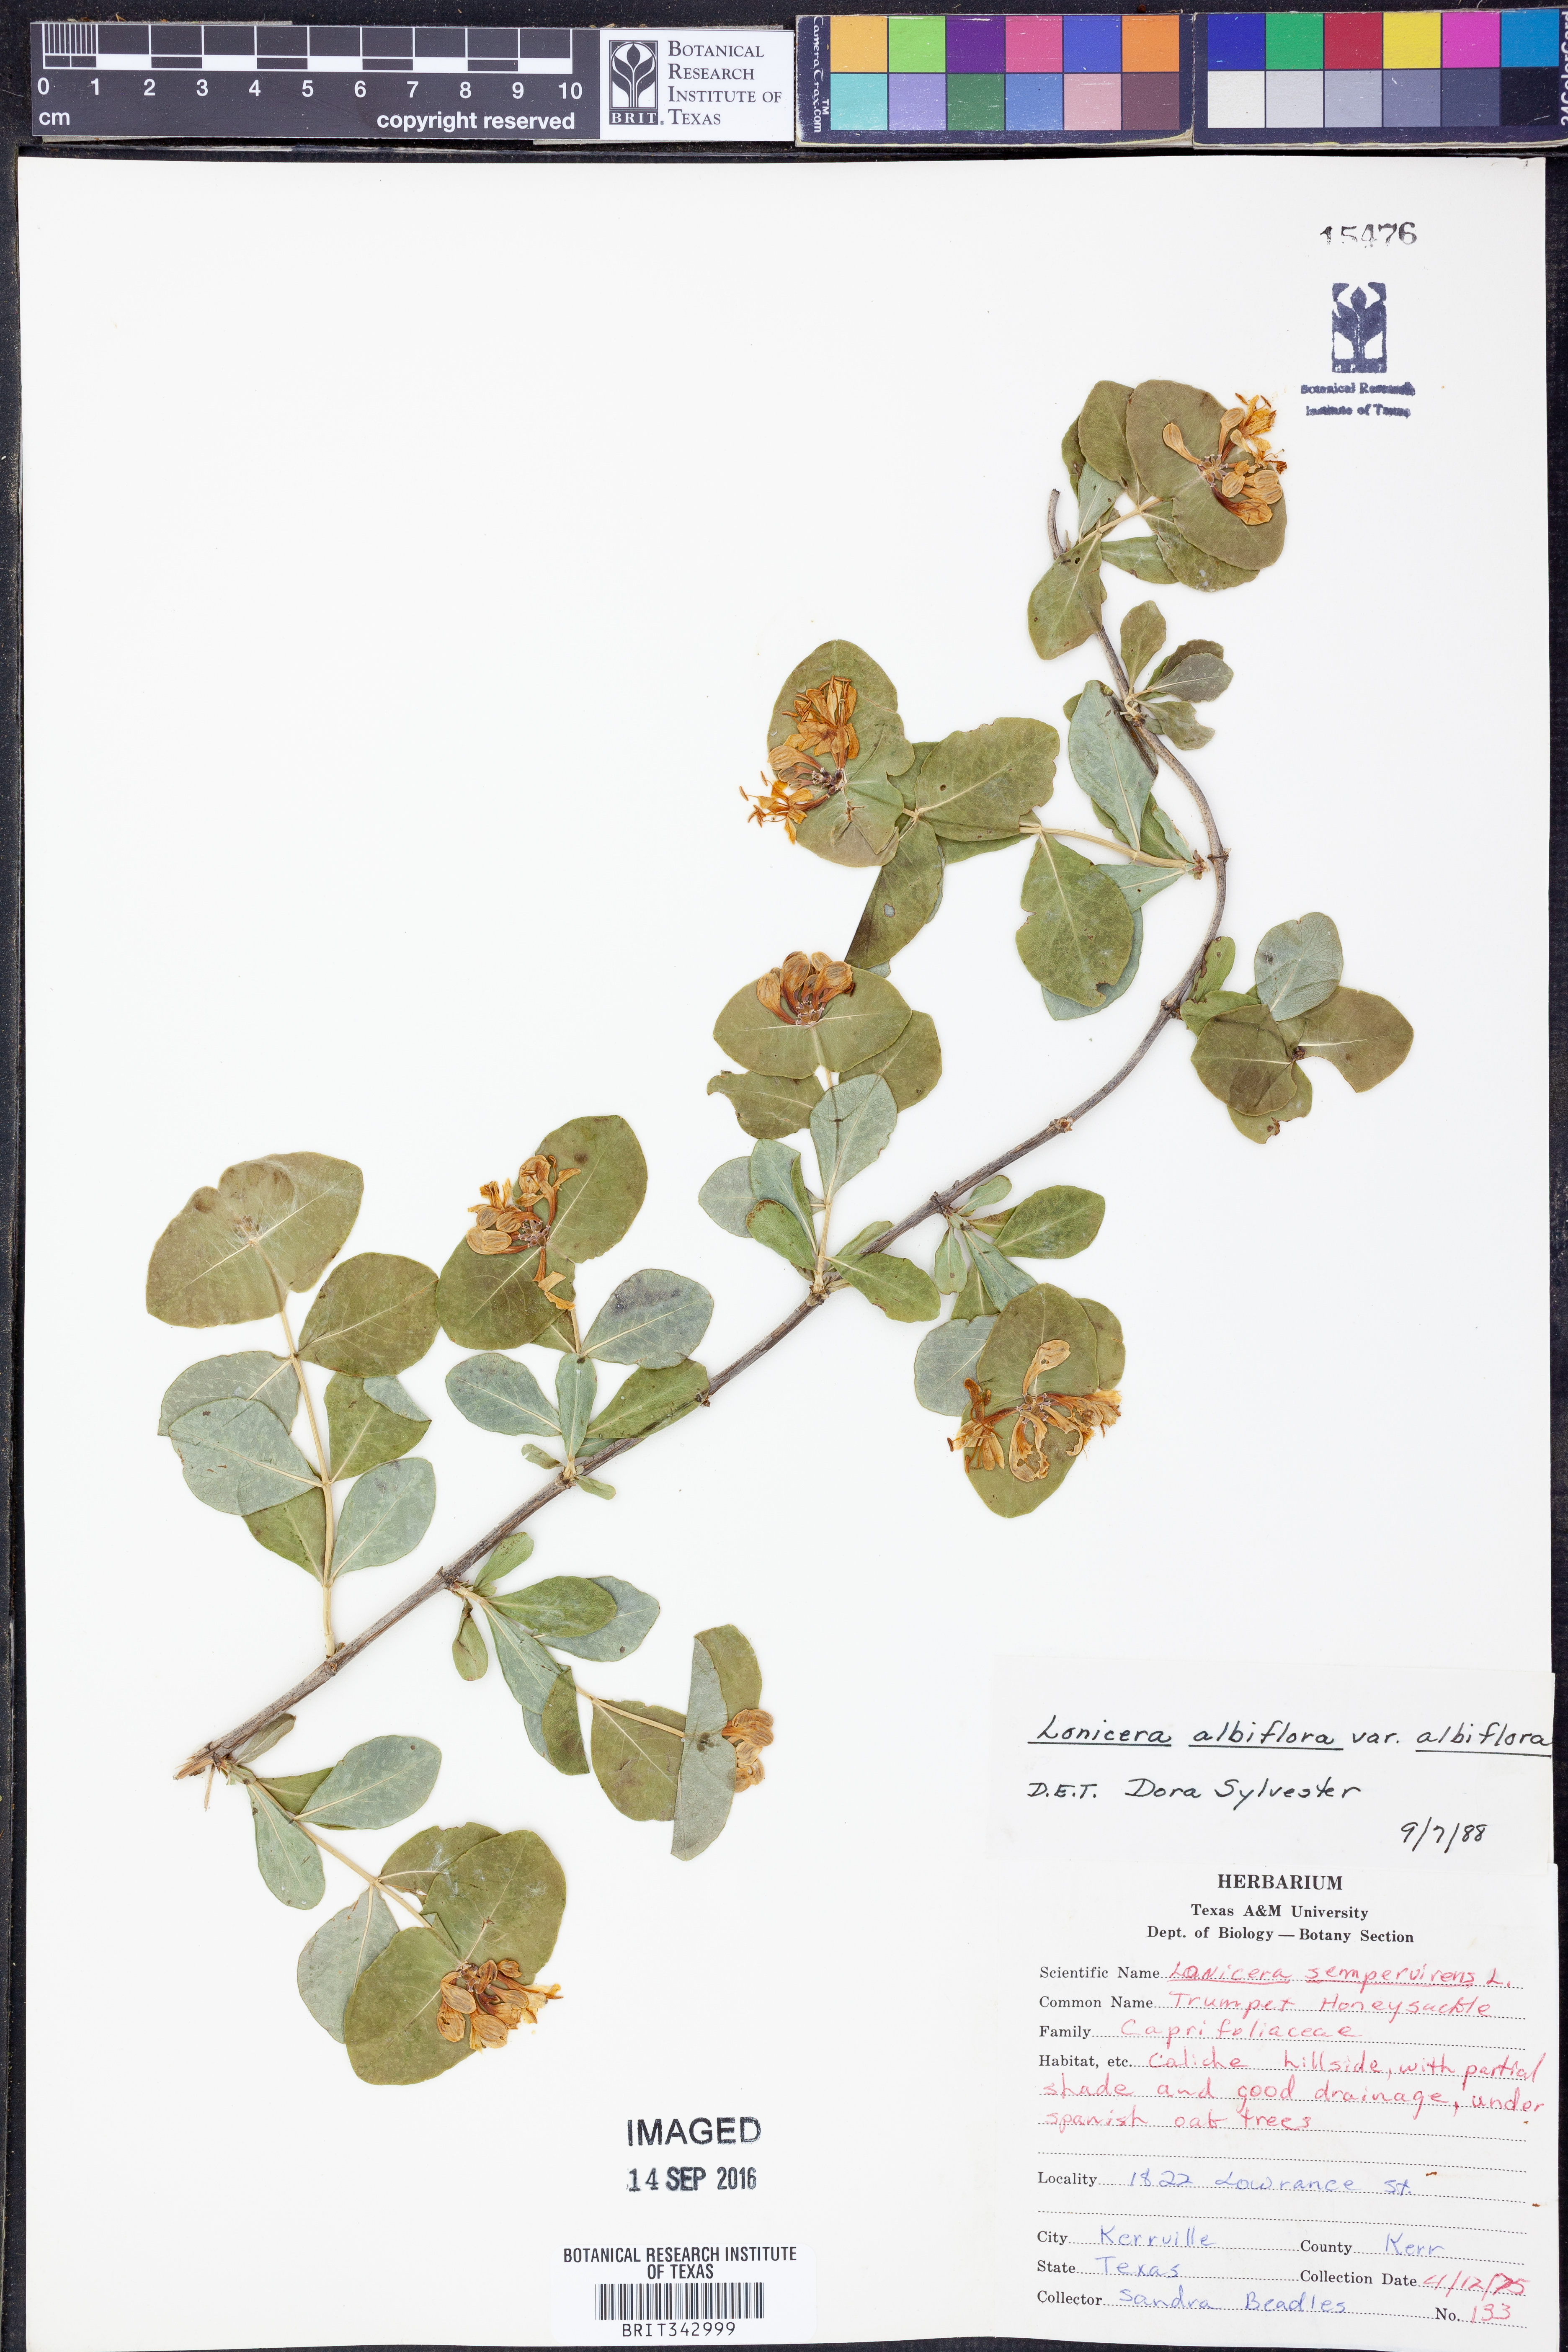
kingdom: Plantae
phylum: Tracheophyta
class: Magnoliopsida
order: Dipsacales
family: Caprifoliaceae
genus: Lonicera
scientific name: Lonicera albiflora
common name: White honeysuckle
